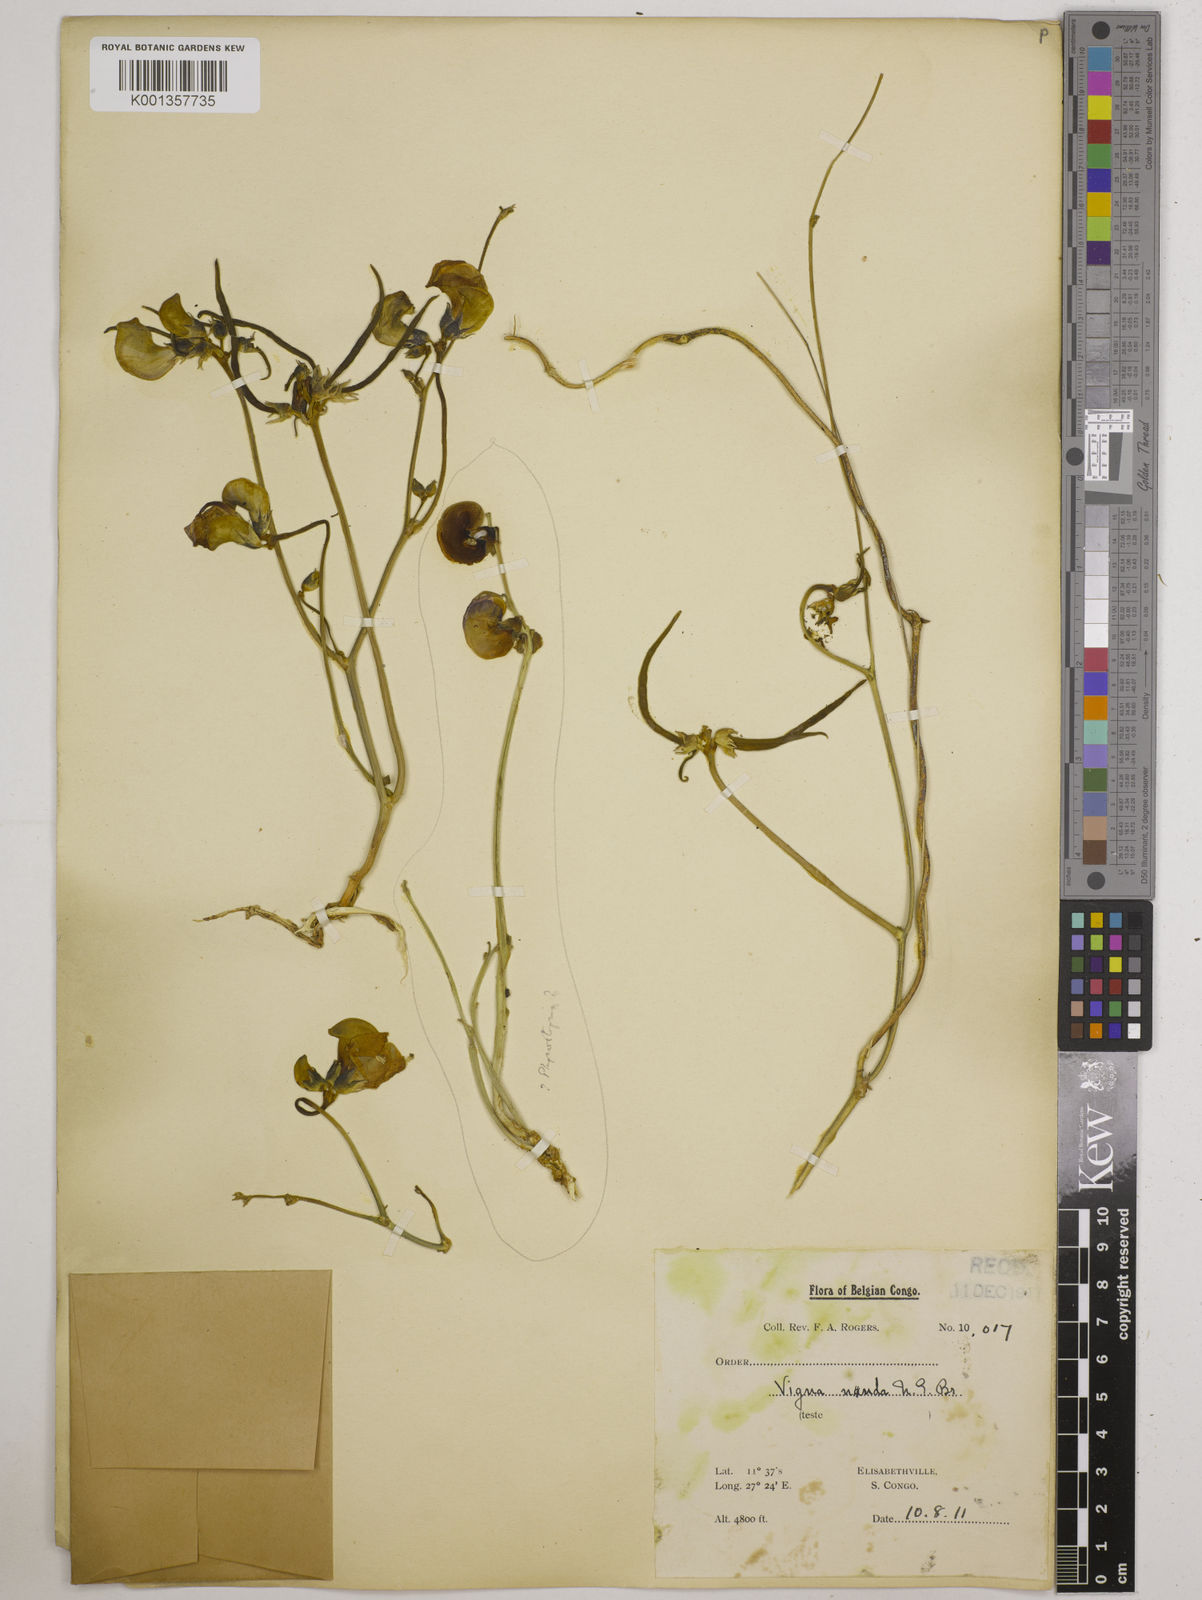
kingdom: Plantae
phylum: Tracheophyta
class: Magnoliopsida
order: Fabales
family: Fabaceae
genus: Vigna
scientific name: Vigna nuda
